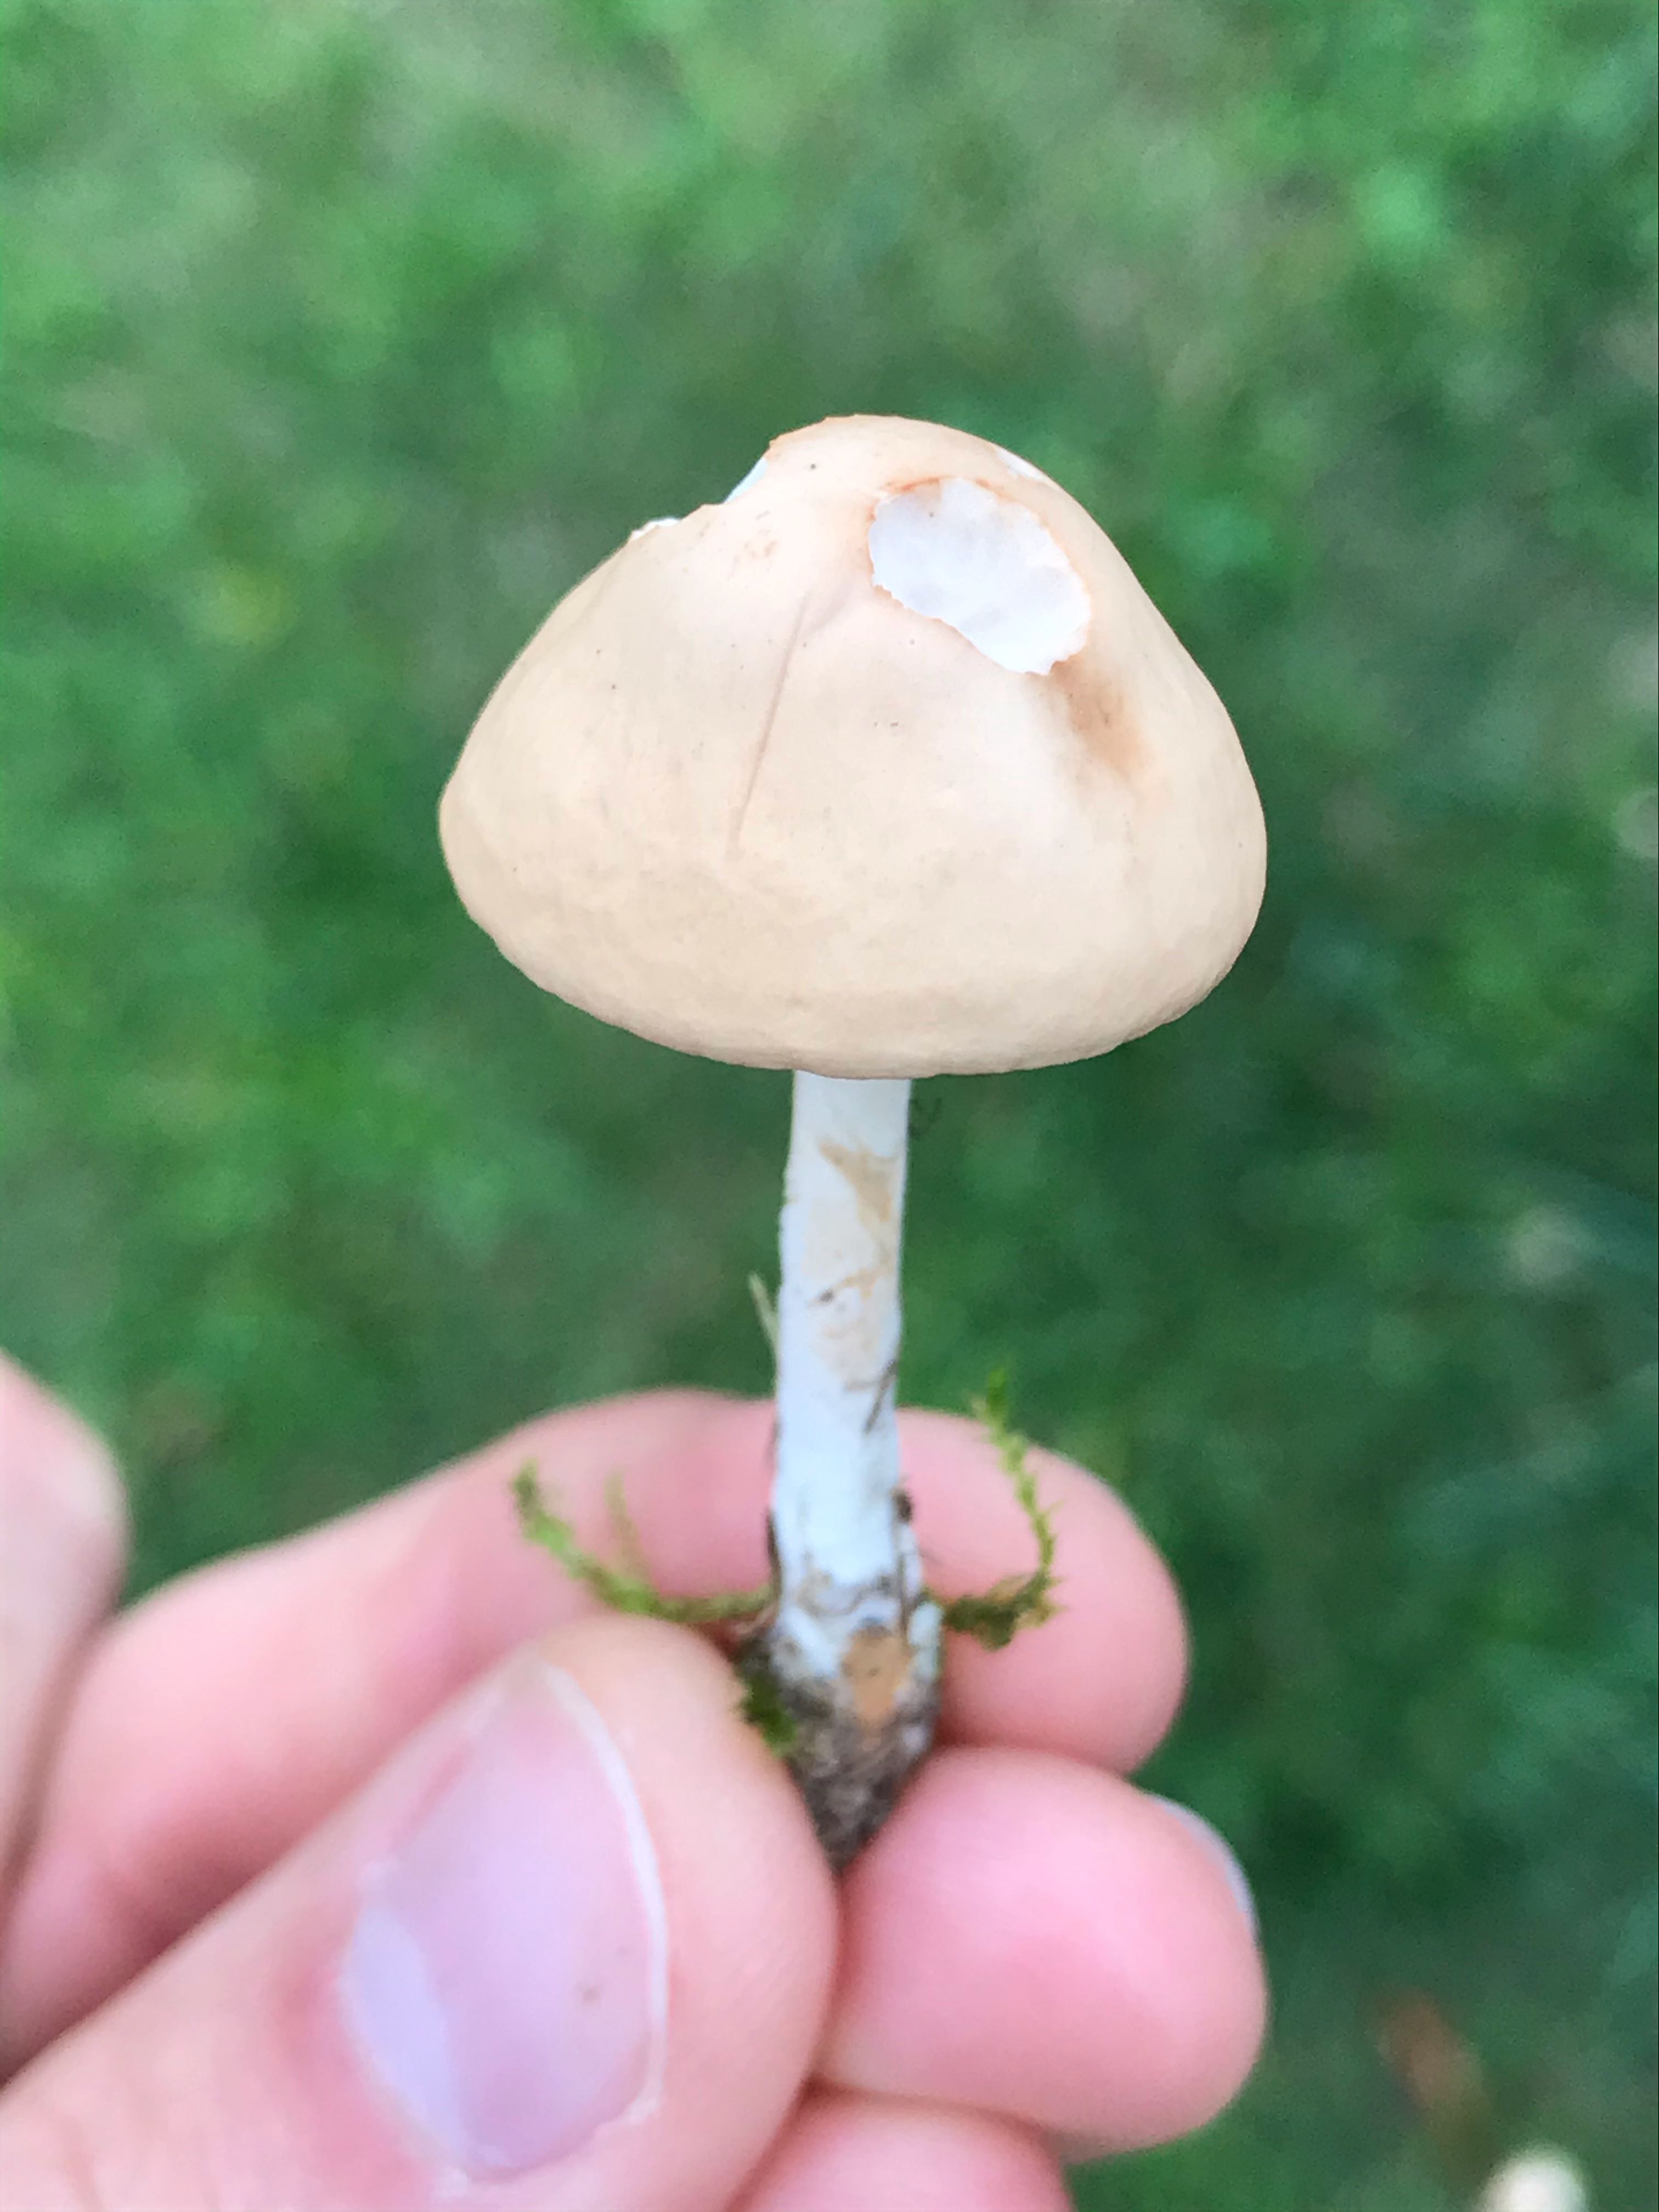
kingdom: Fungi
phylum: Basidiomycota
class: Agaricomycetes
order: Agaricales
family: Marasmiaceae
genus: Marasmius
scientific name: Marasmius oreades
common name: elledans-bruskhat
